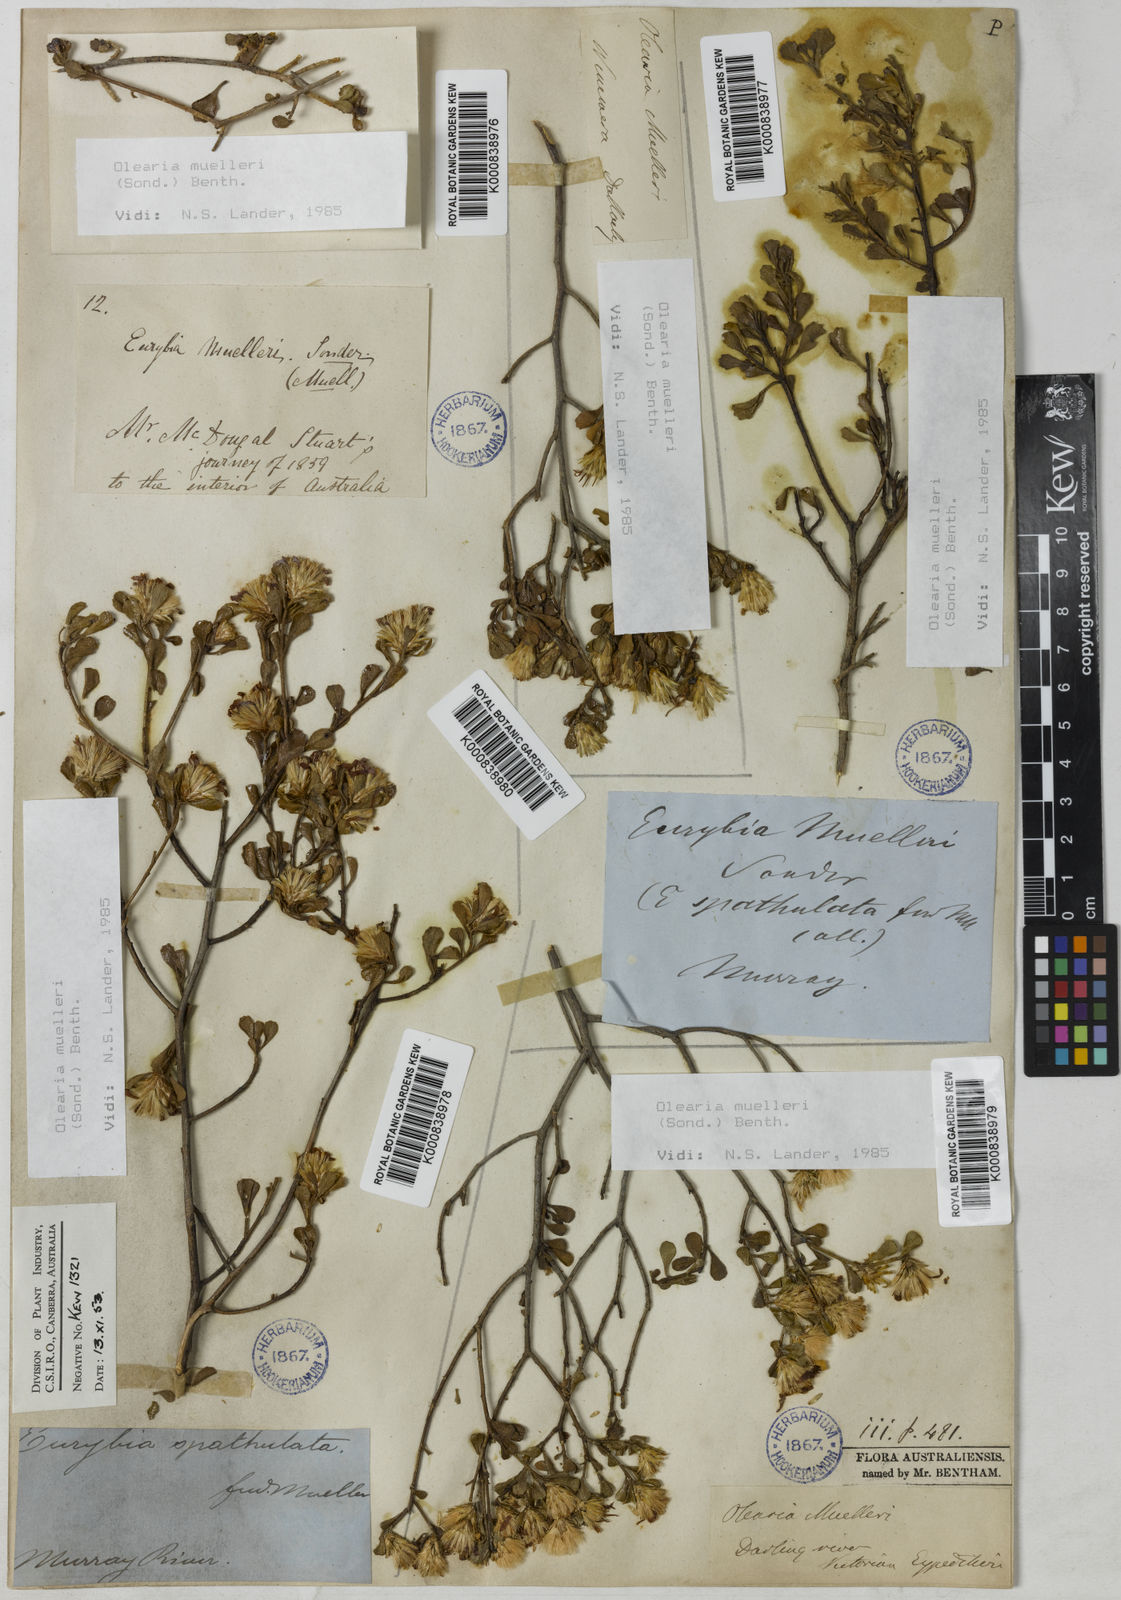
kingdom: Plantae
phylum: Tracheophyta
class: Magnoliopsida
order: Asterales
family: Asteraceae
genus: Walsholaria
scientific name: Walsholaria muelleri
